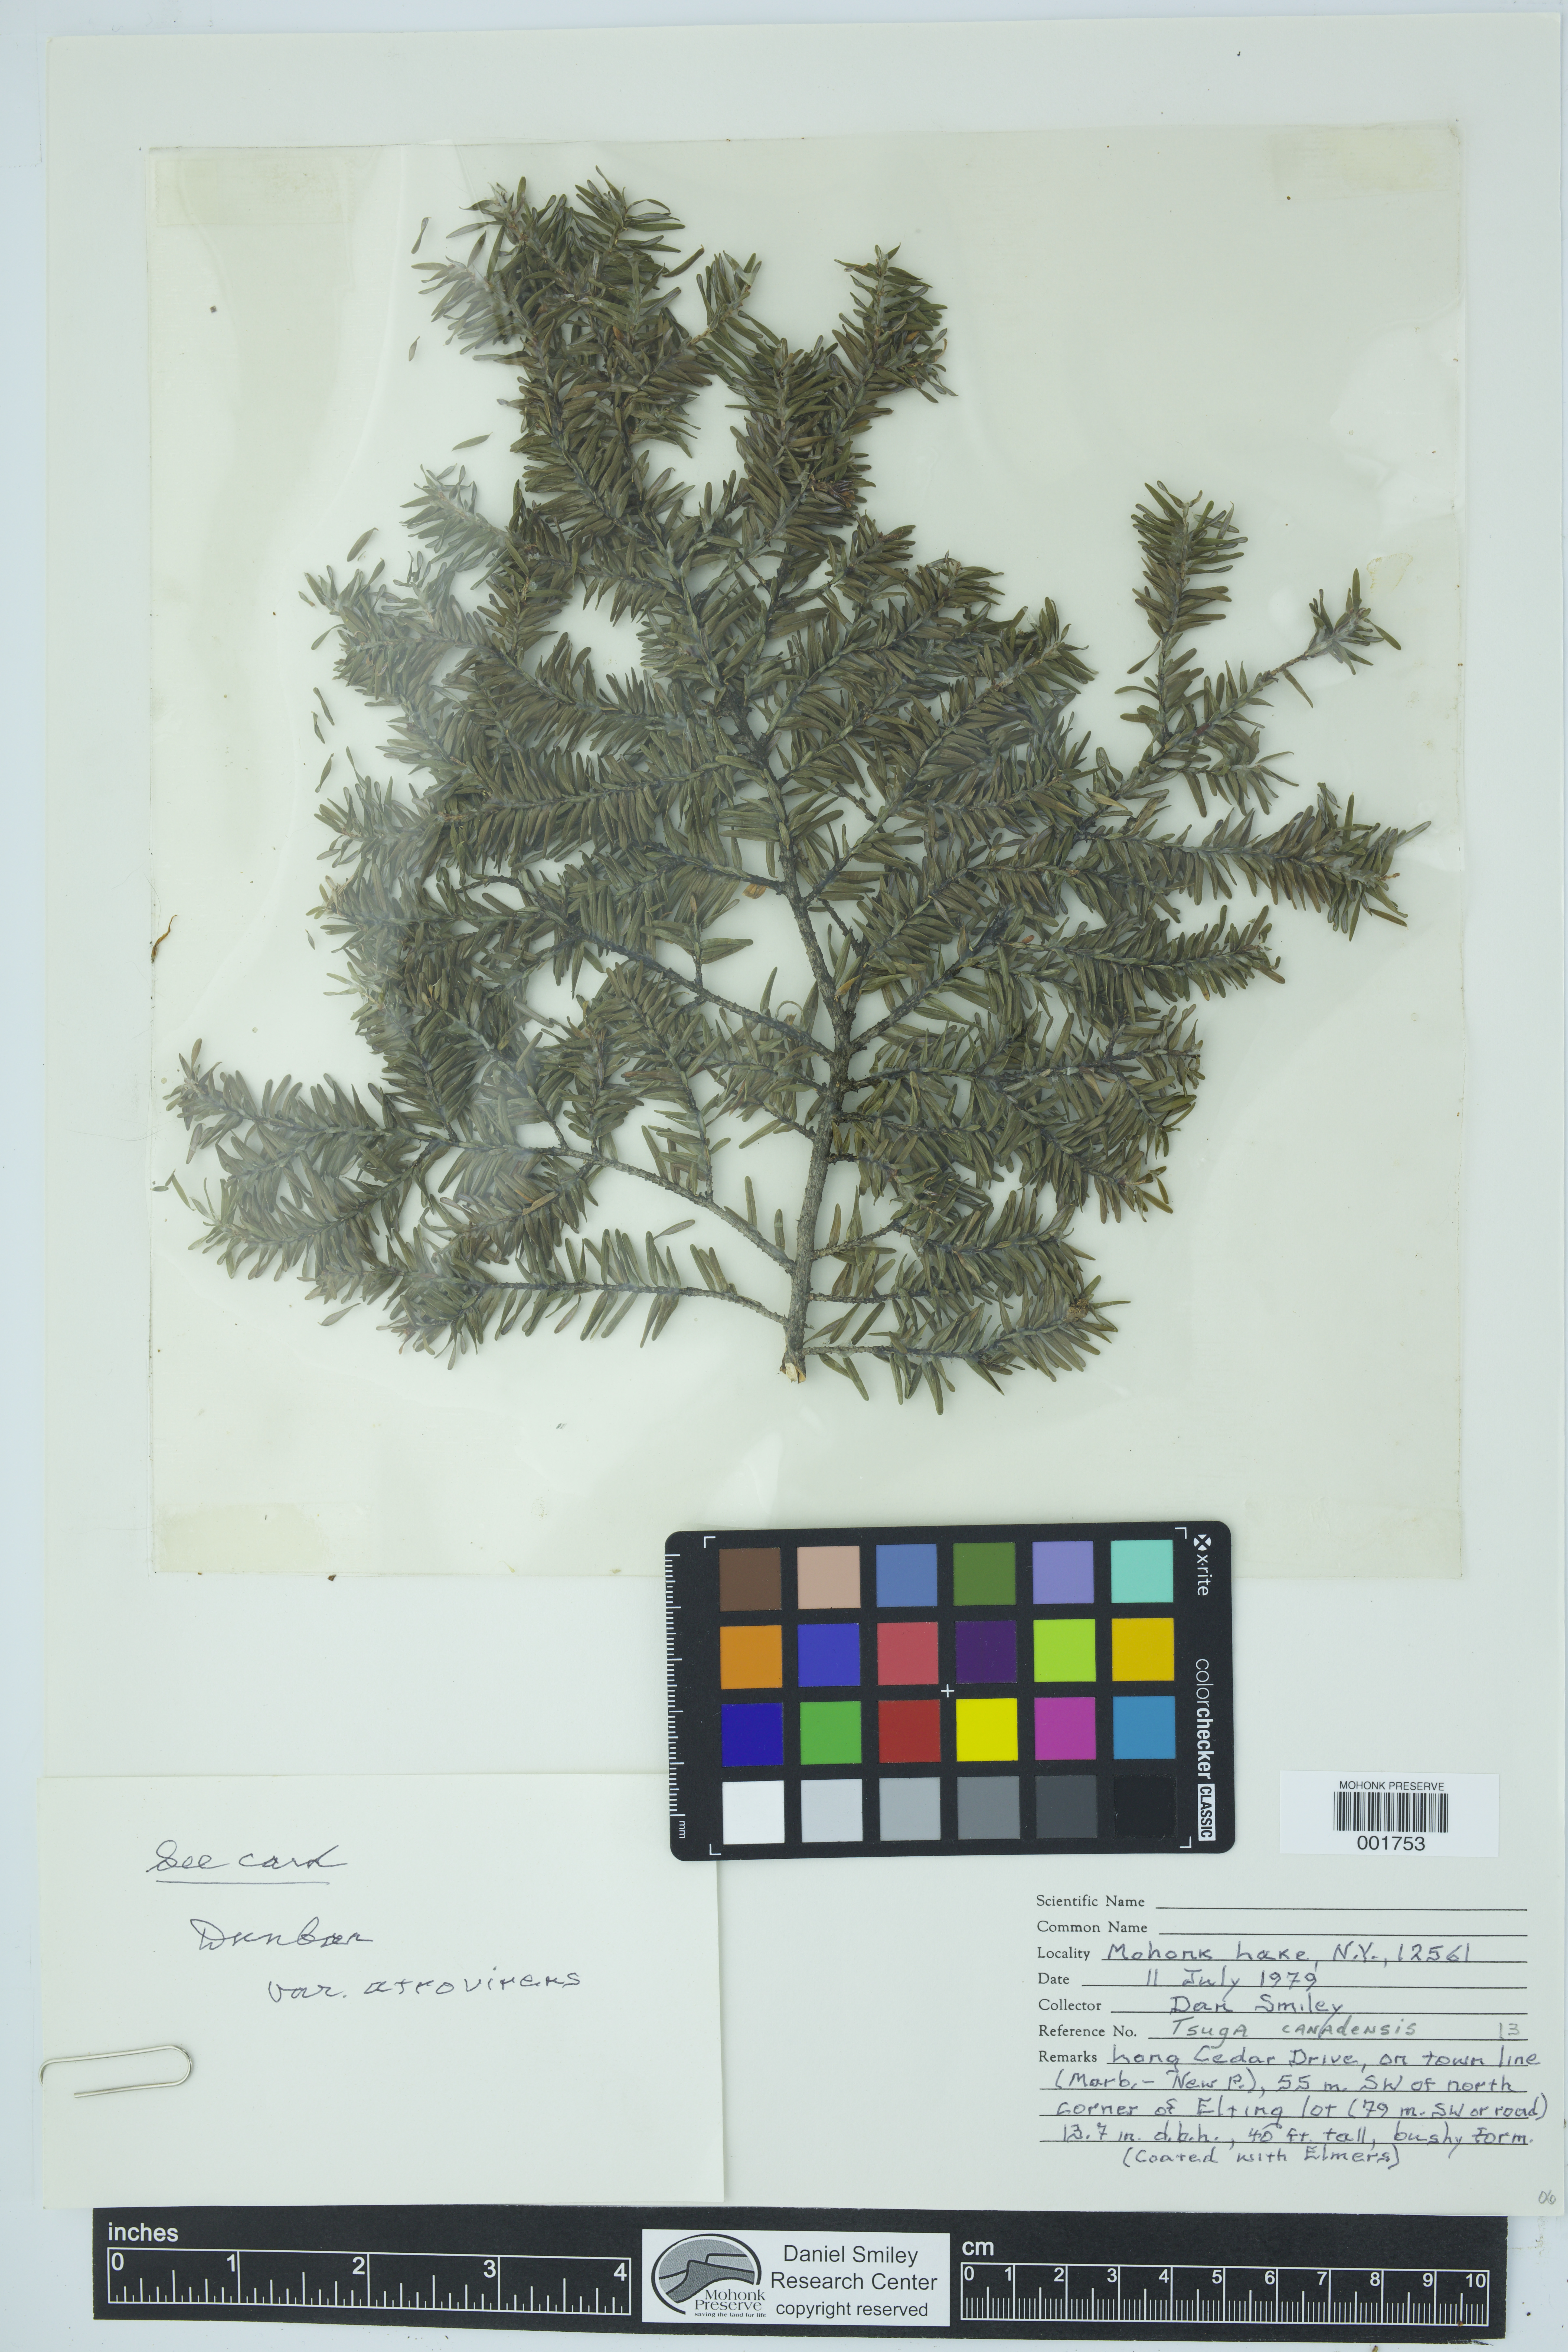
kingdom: Plantae
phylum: Tracheophyta
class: Pinopsida
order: Pinales
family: Pinaceae
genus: Tsuga
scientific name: Tsuga canadensis
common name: Eastern hemlock
